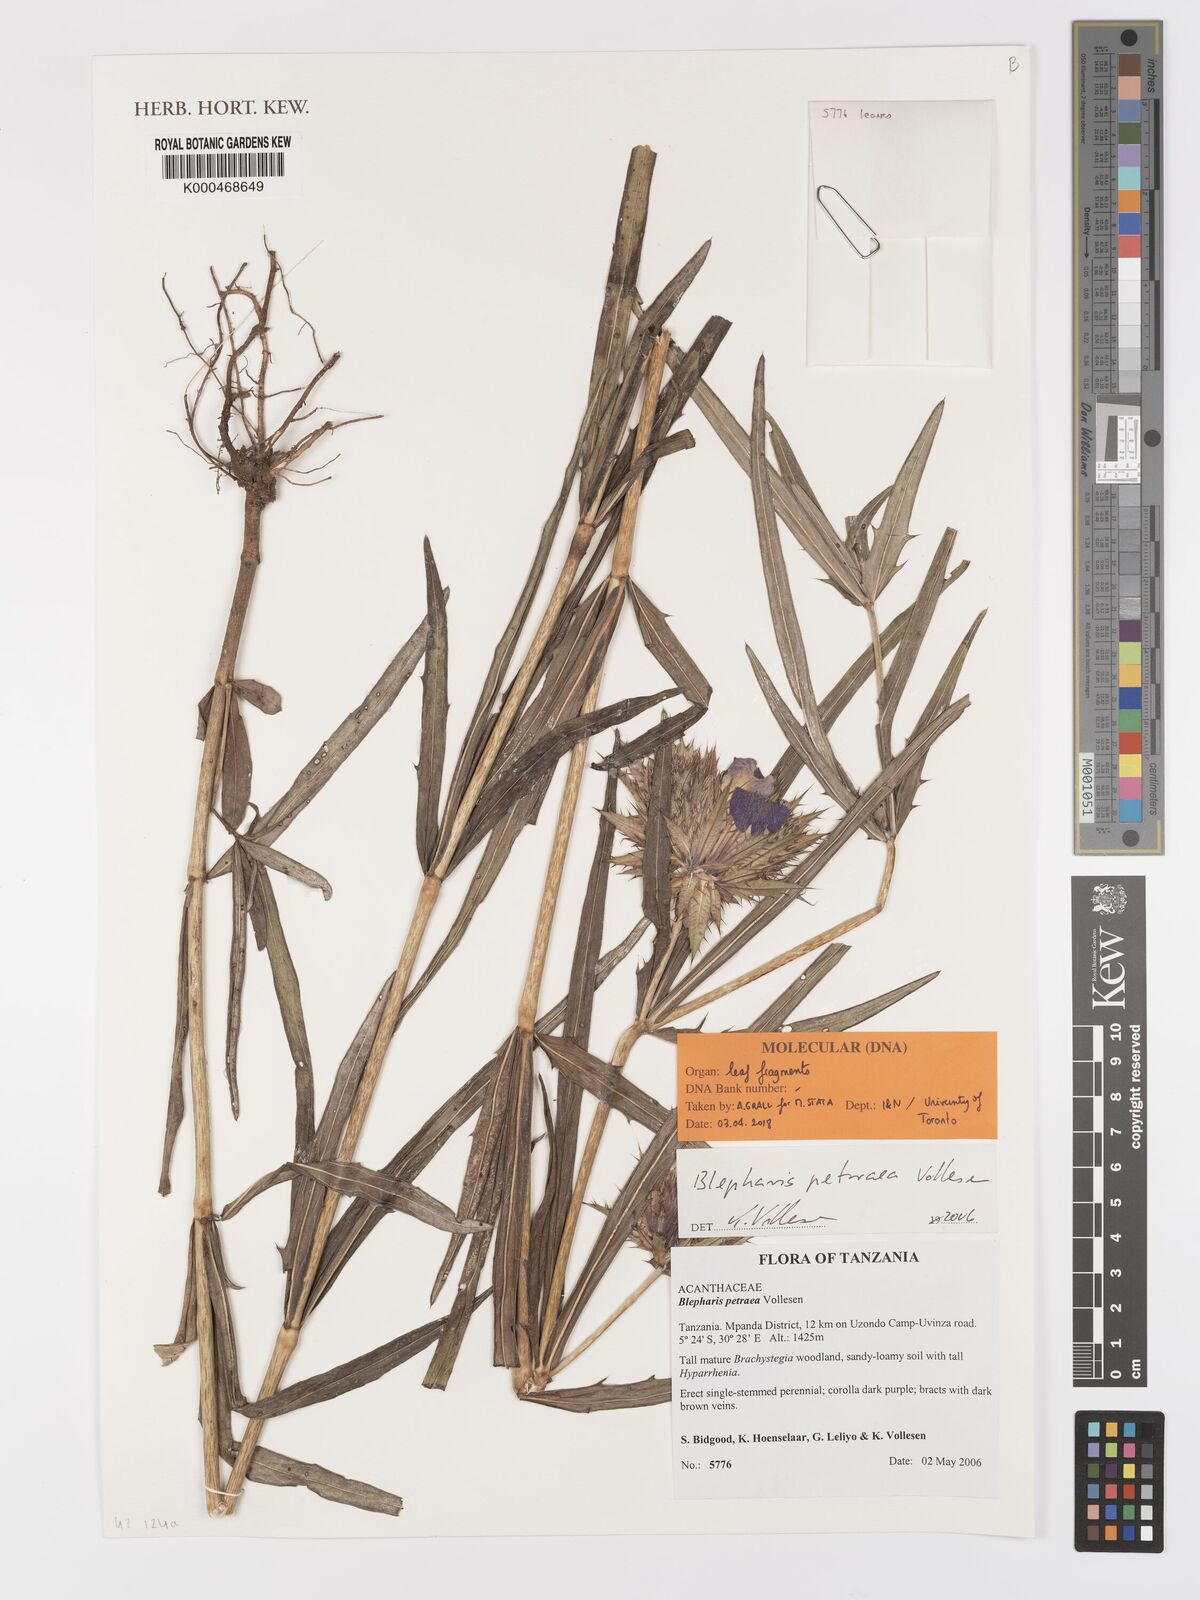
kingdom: Plantae
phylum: Tracheophyta
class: Magnoliopsida
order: Lamiales
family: Acanthaceae
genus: Blepharis
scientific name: Blepharis petraea
